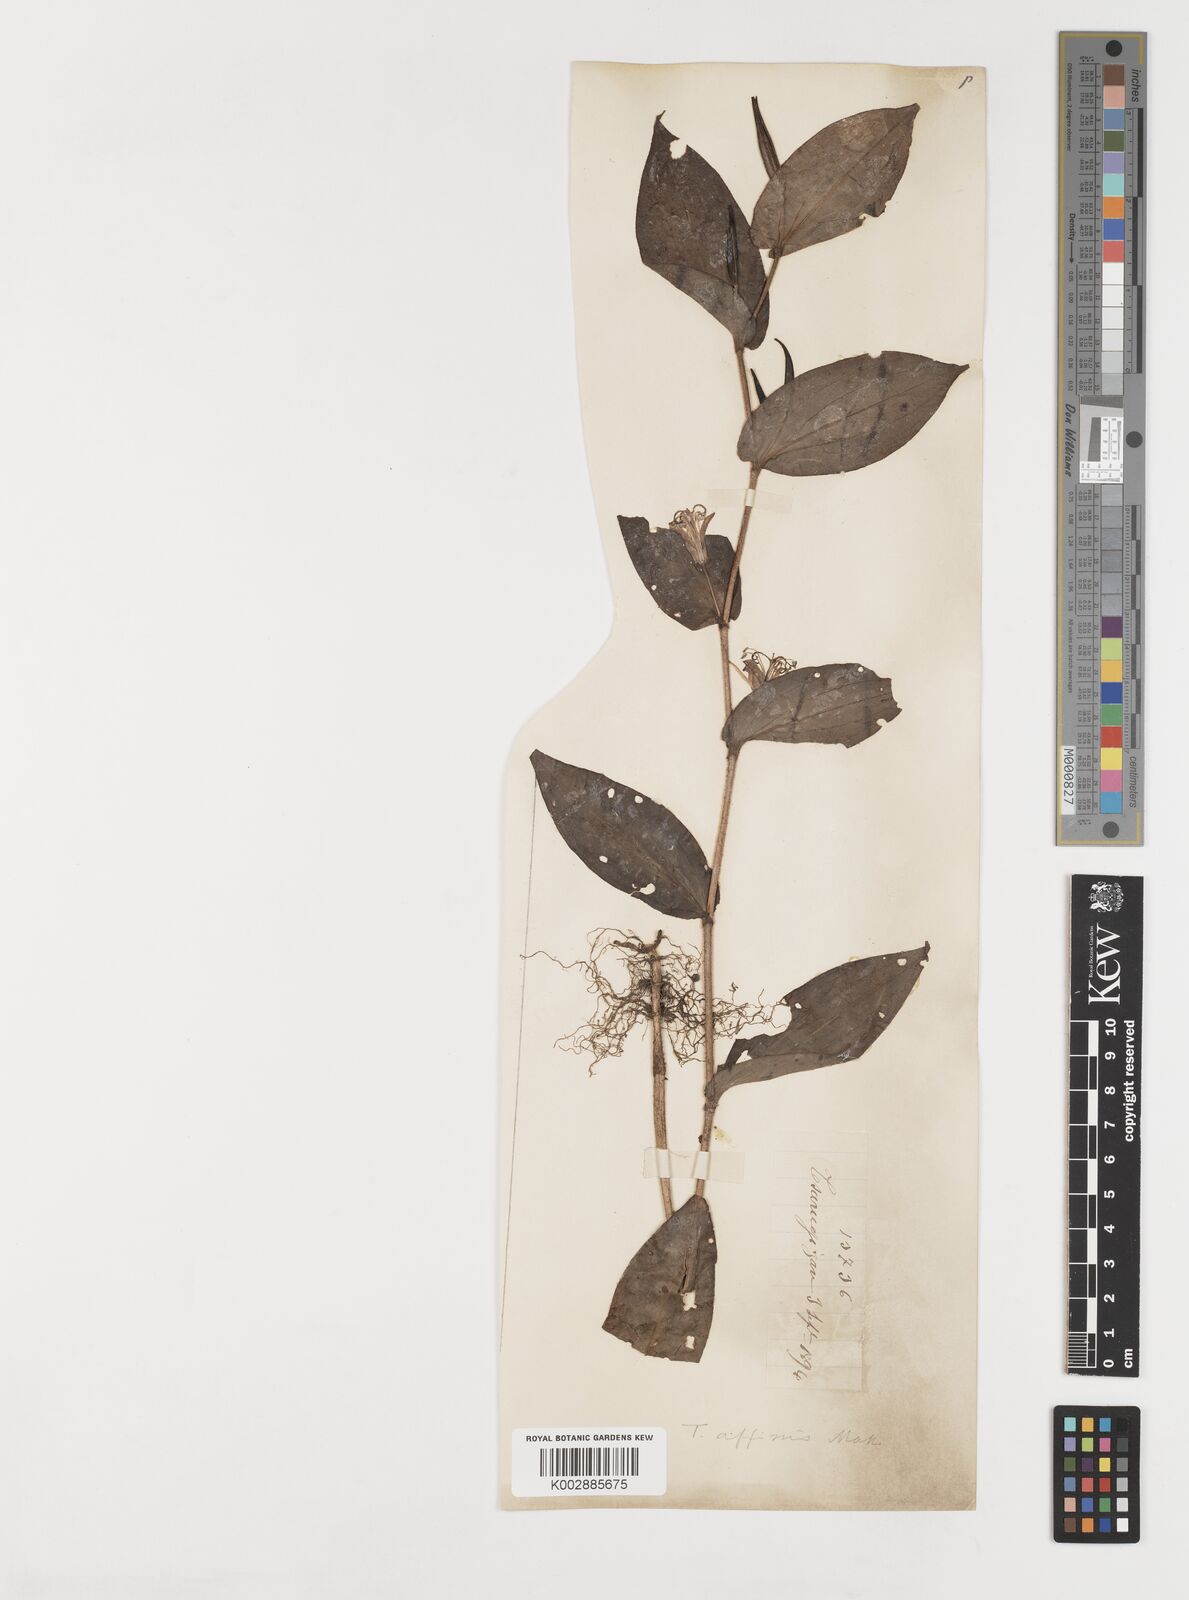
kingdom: Plantae
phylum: Tracheophyta
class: Liliopsida
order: Liliales
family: Liliaceae
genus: Tricyrtis
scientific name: Tricyrtis affinis
